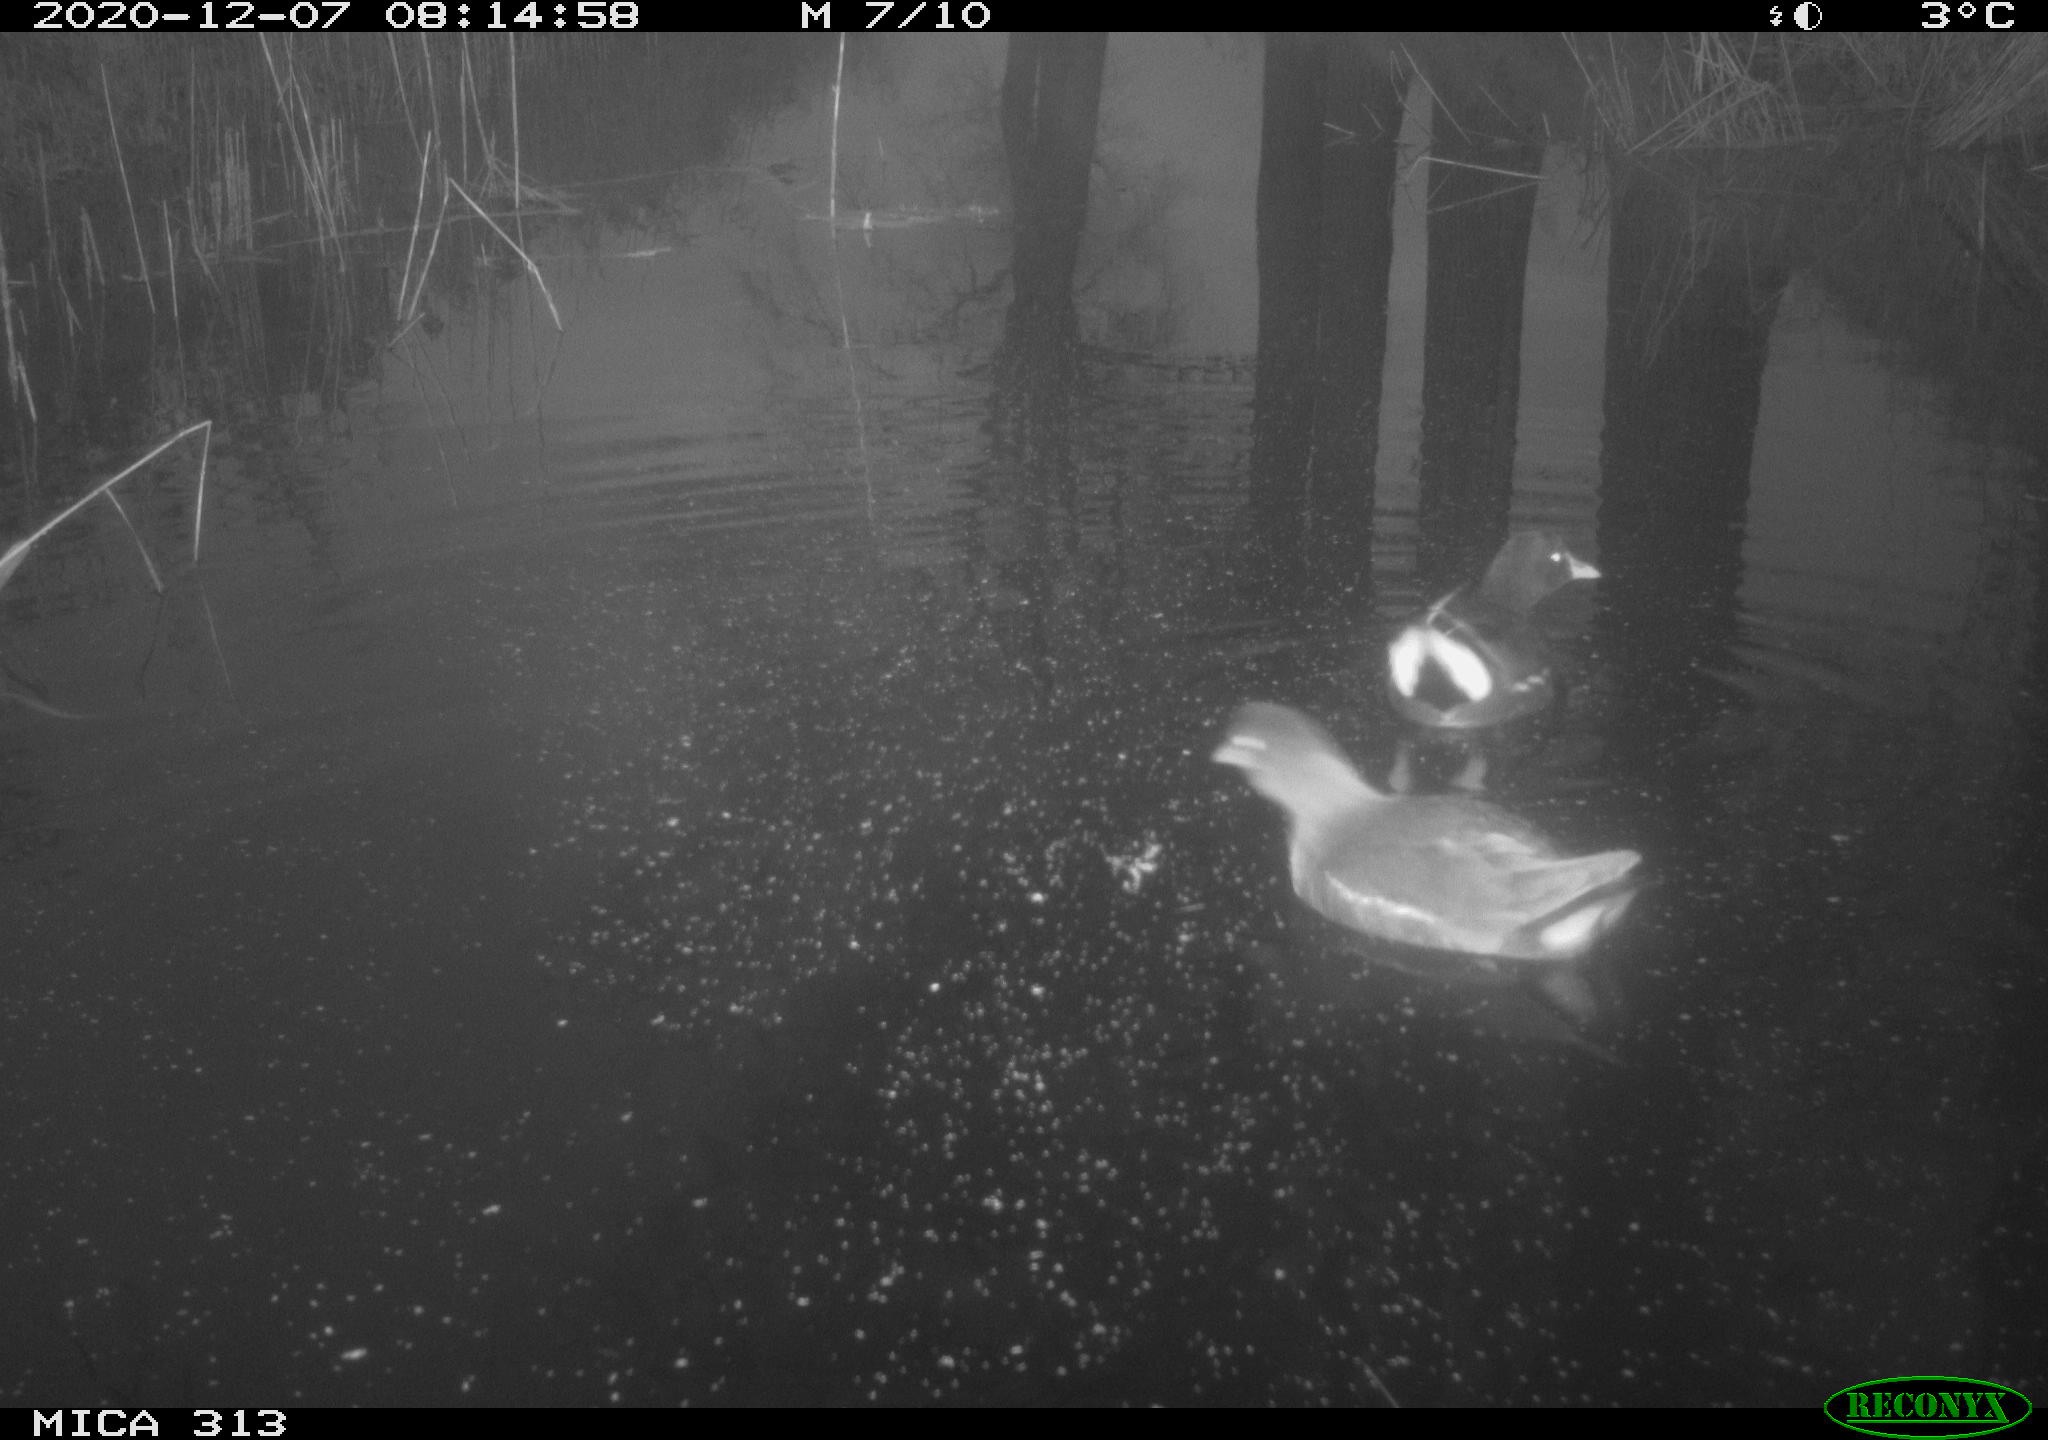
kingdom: Animalia
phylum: Chordata
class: Aves
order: Gruiformes
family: Rallidae
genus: Gallinula
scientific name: Gallinula chloropus
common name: Common moorhen
